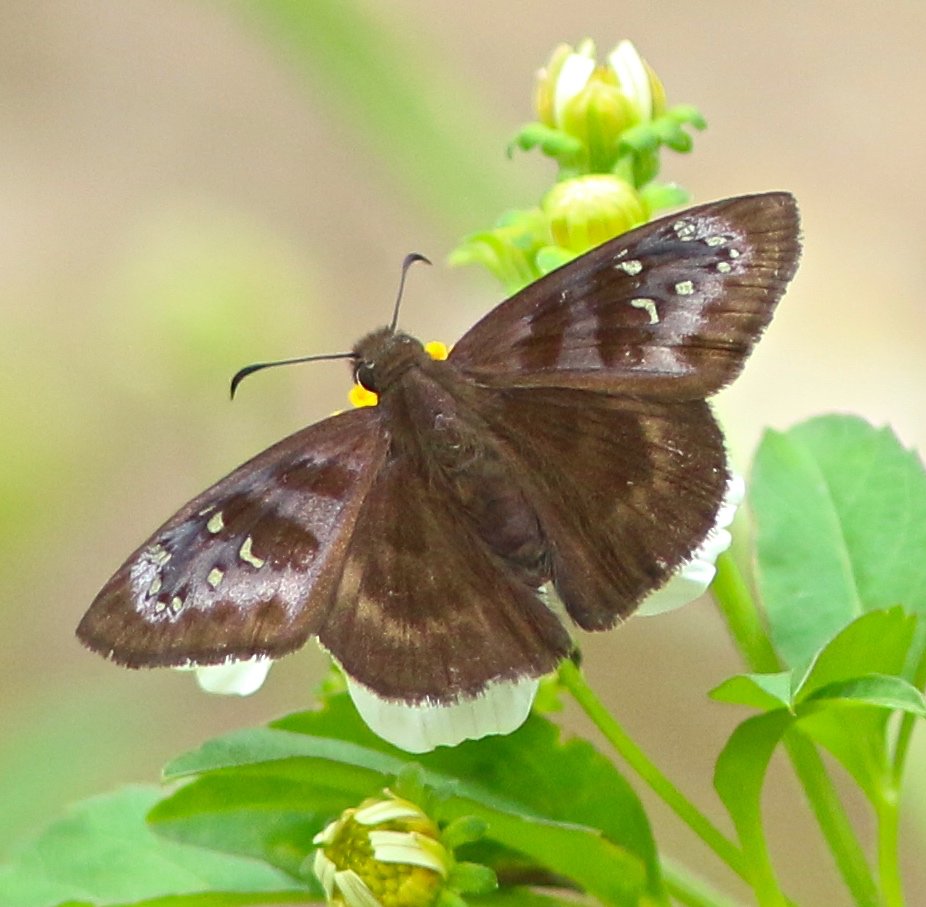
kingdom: Animalia
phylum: Arthropoda
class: Insecta
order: Lepidoptera
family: Hesperiidae
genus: Ephyriades
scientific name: Ephyriades brunnea
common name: Florida Duskywing
